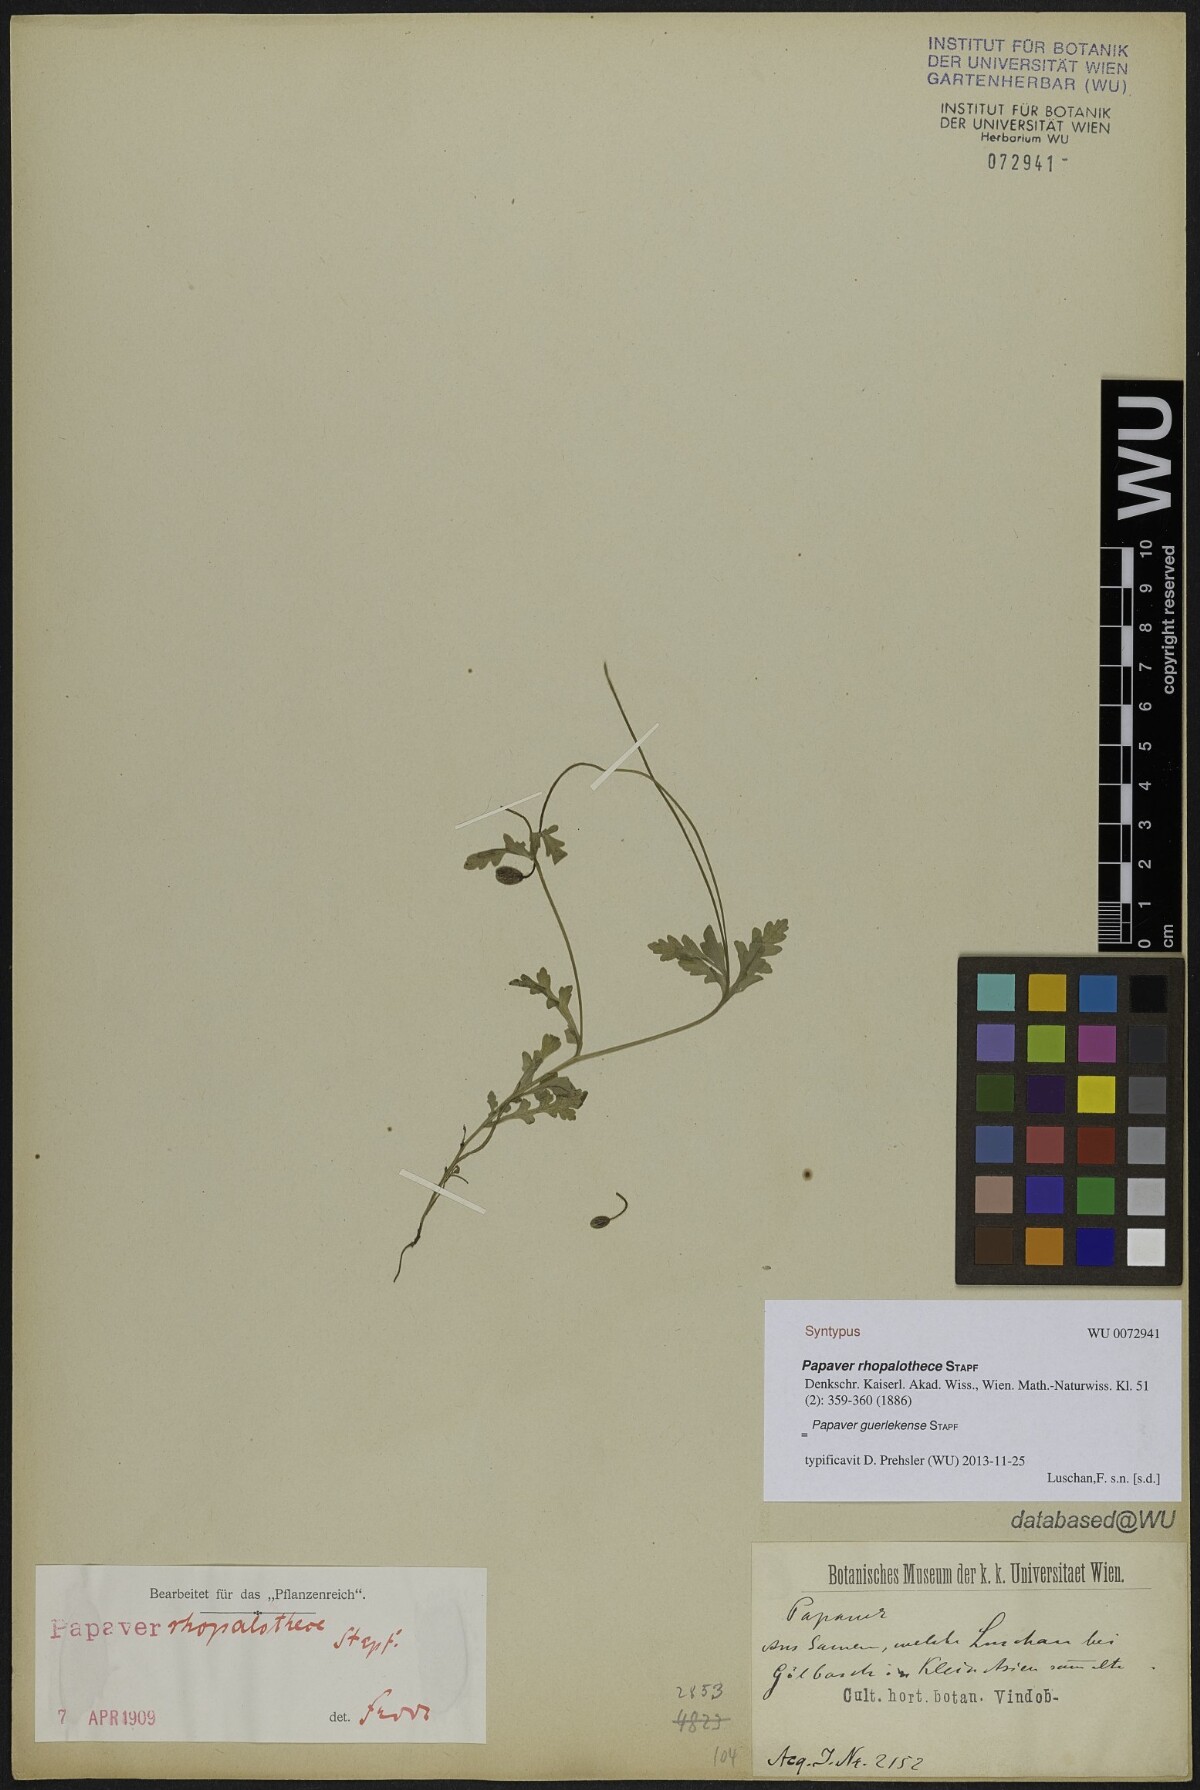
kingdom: Plantae
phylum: Tracheophyta
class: Magnoliopsida
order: Ranunculales
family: Papaveraceae
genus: Papaver
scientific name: Papaver guerlekense
